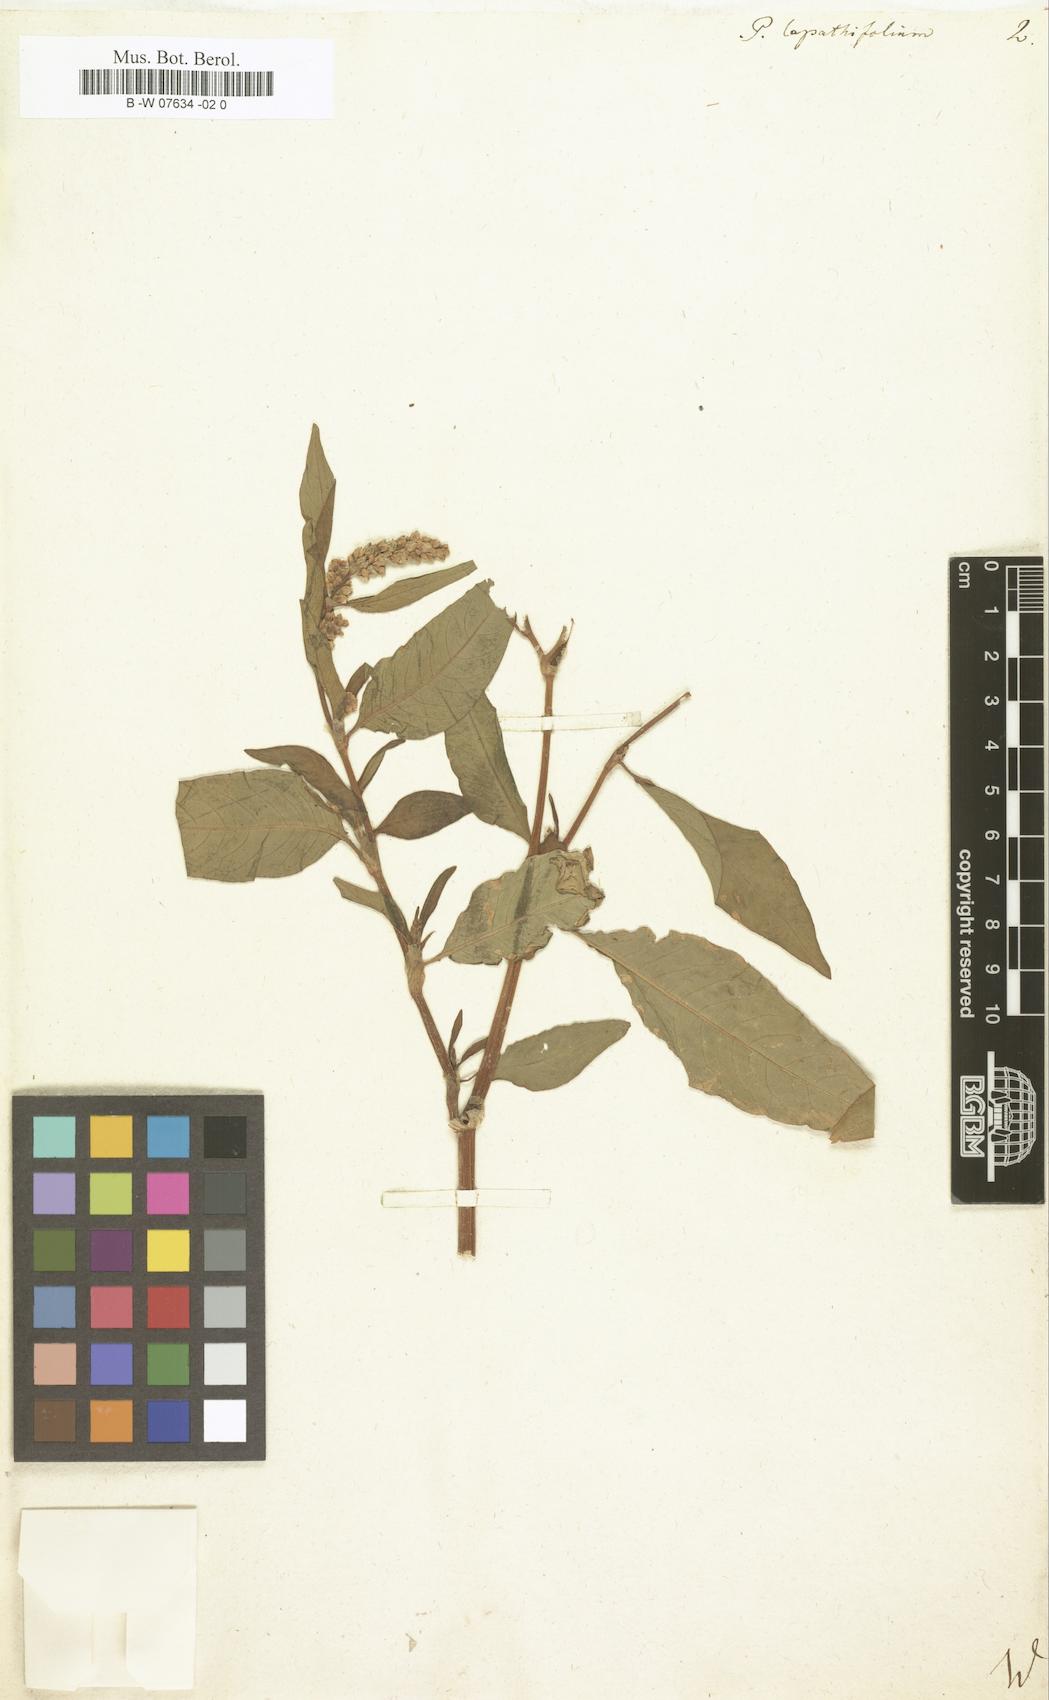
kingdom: Plantae
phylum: Tracheophyta
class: Magnoliopsida
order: Caryophyllales
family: Polygonaceae
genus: Persicaria
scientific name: Persicaria
